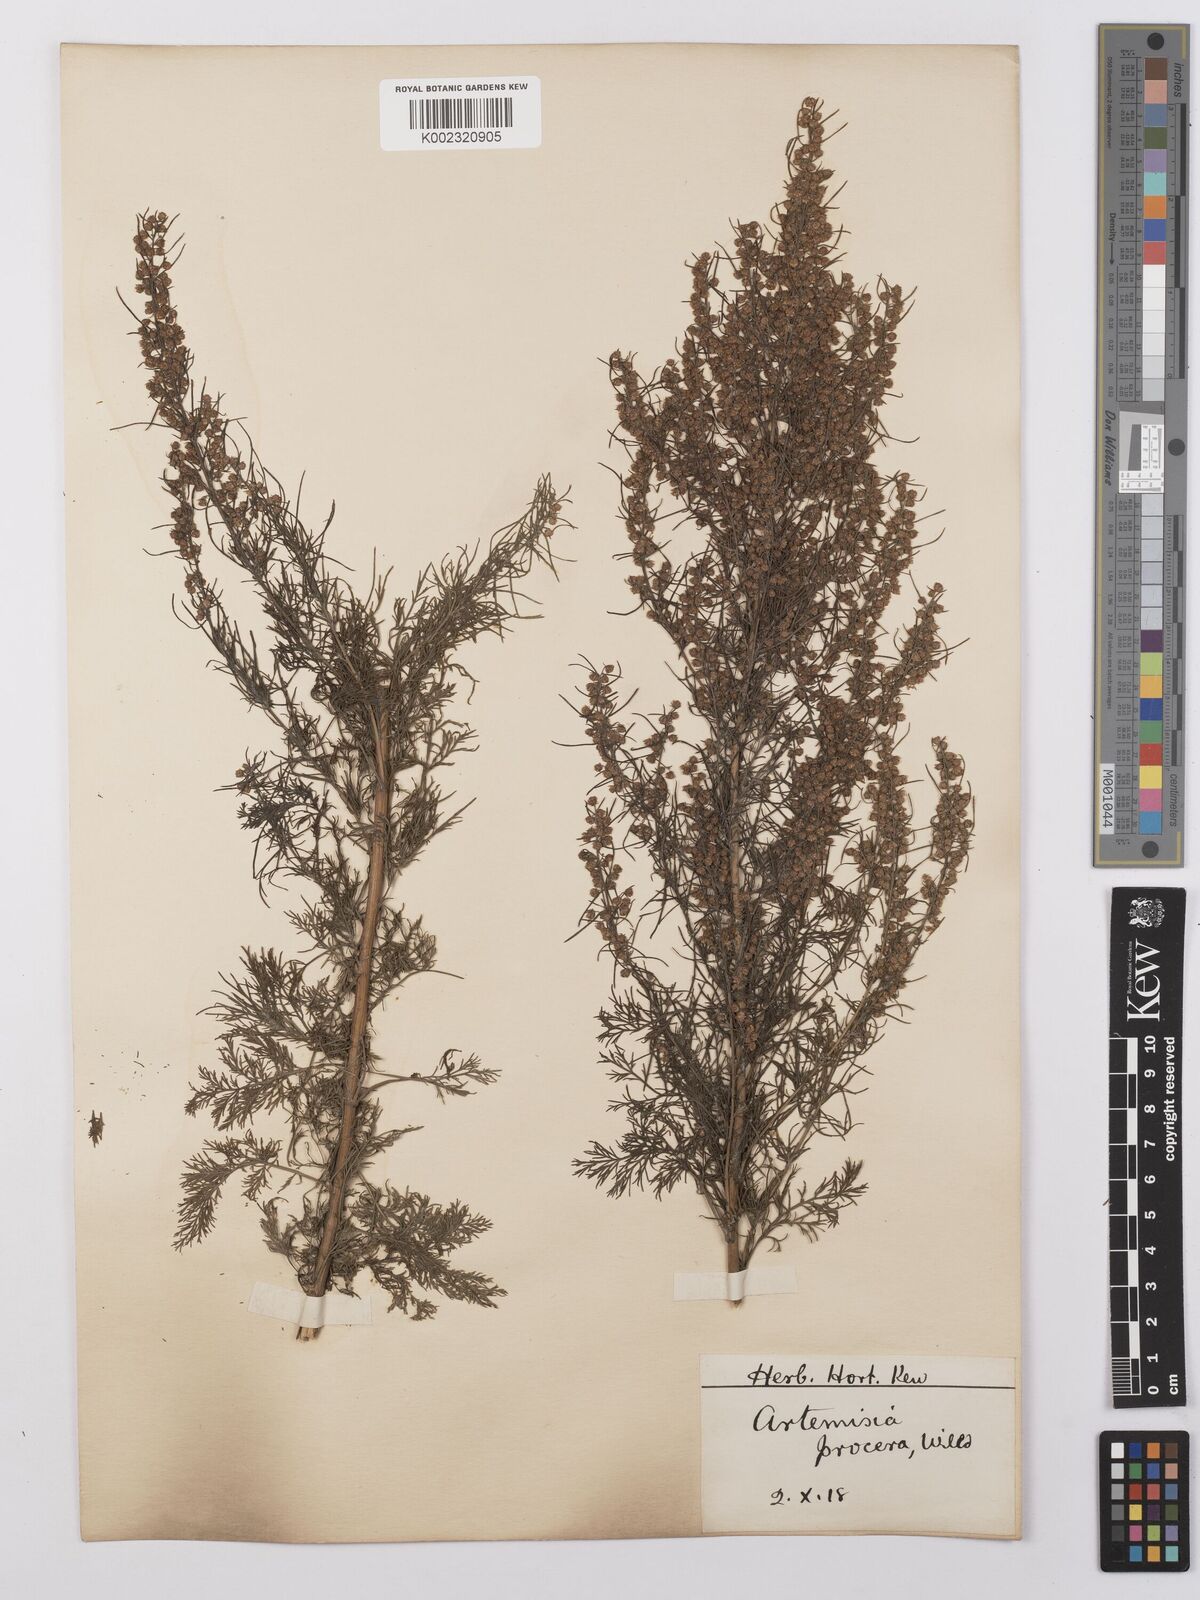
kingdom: Plantae
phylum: Tracheophyta
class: Magnoliopsida
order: Asterales
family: Asteraceae
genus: Artemisia
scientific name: Artemisia abrotanum
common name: Southernwood
